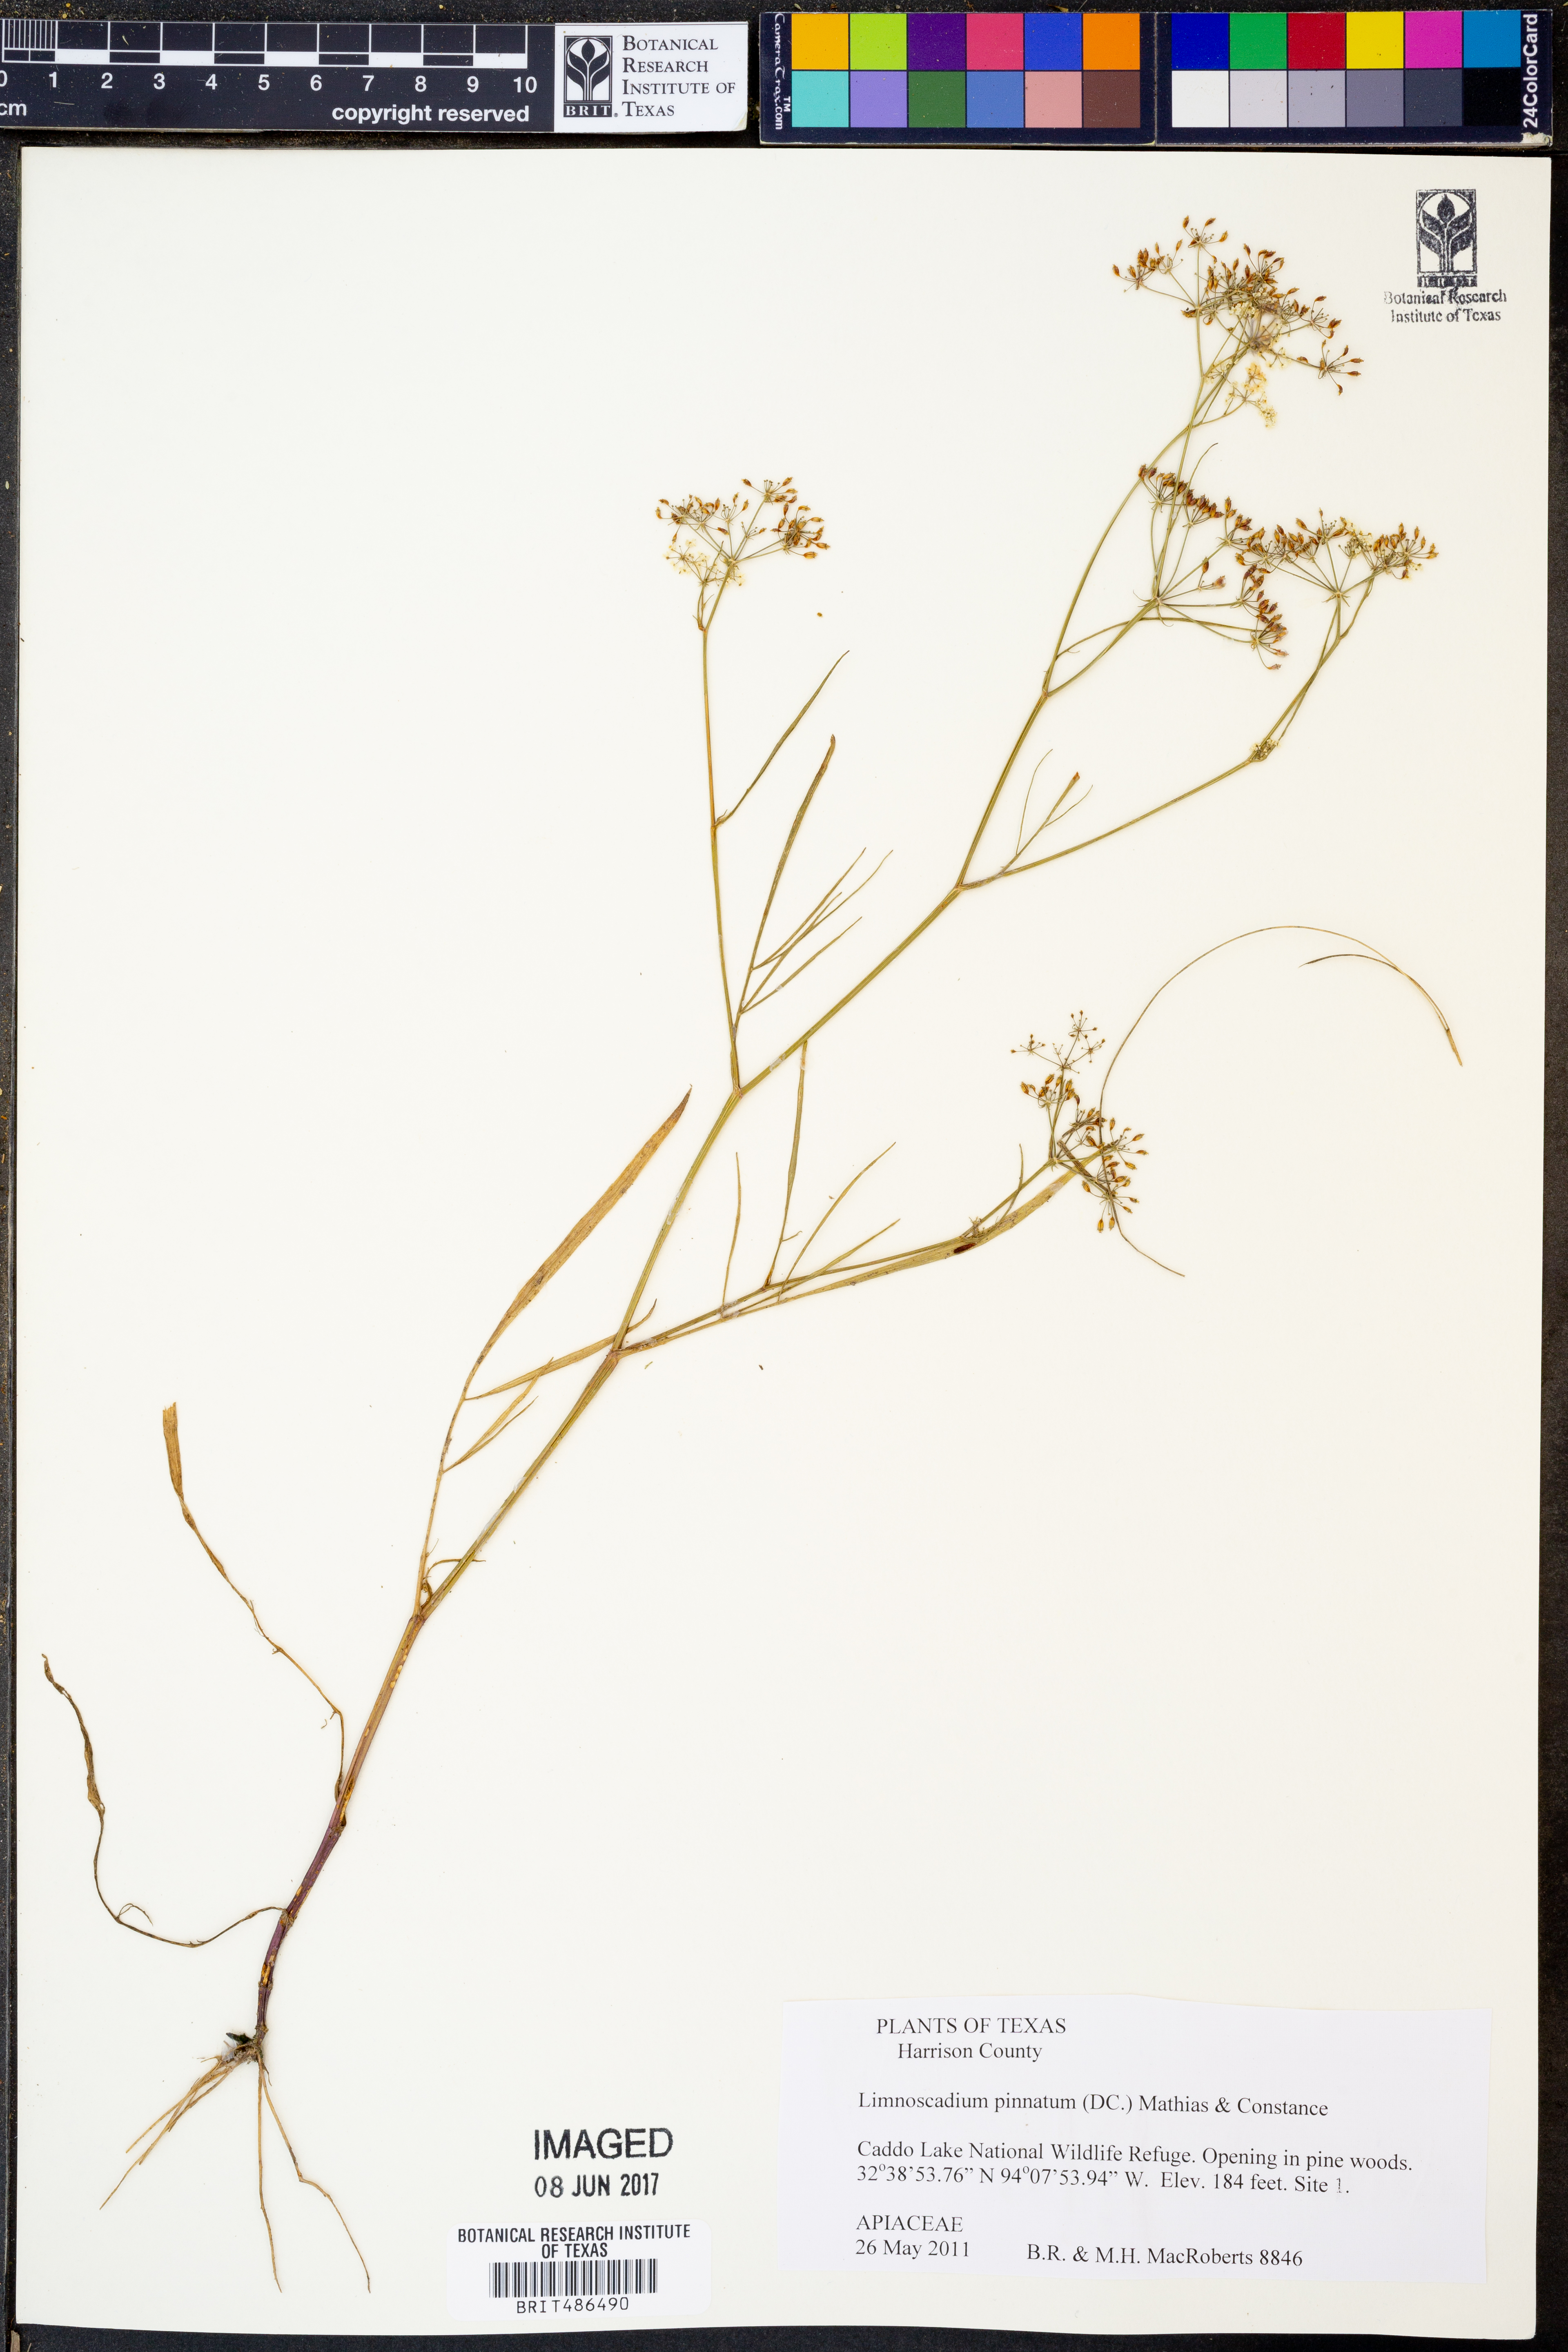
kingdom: Plantae
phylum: Tracheophyta
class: Magnoliopsida
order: Apiales
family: Apiaceae
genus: Limnosciadium
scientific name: Limnosciadium pinnatum
